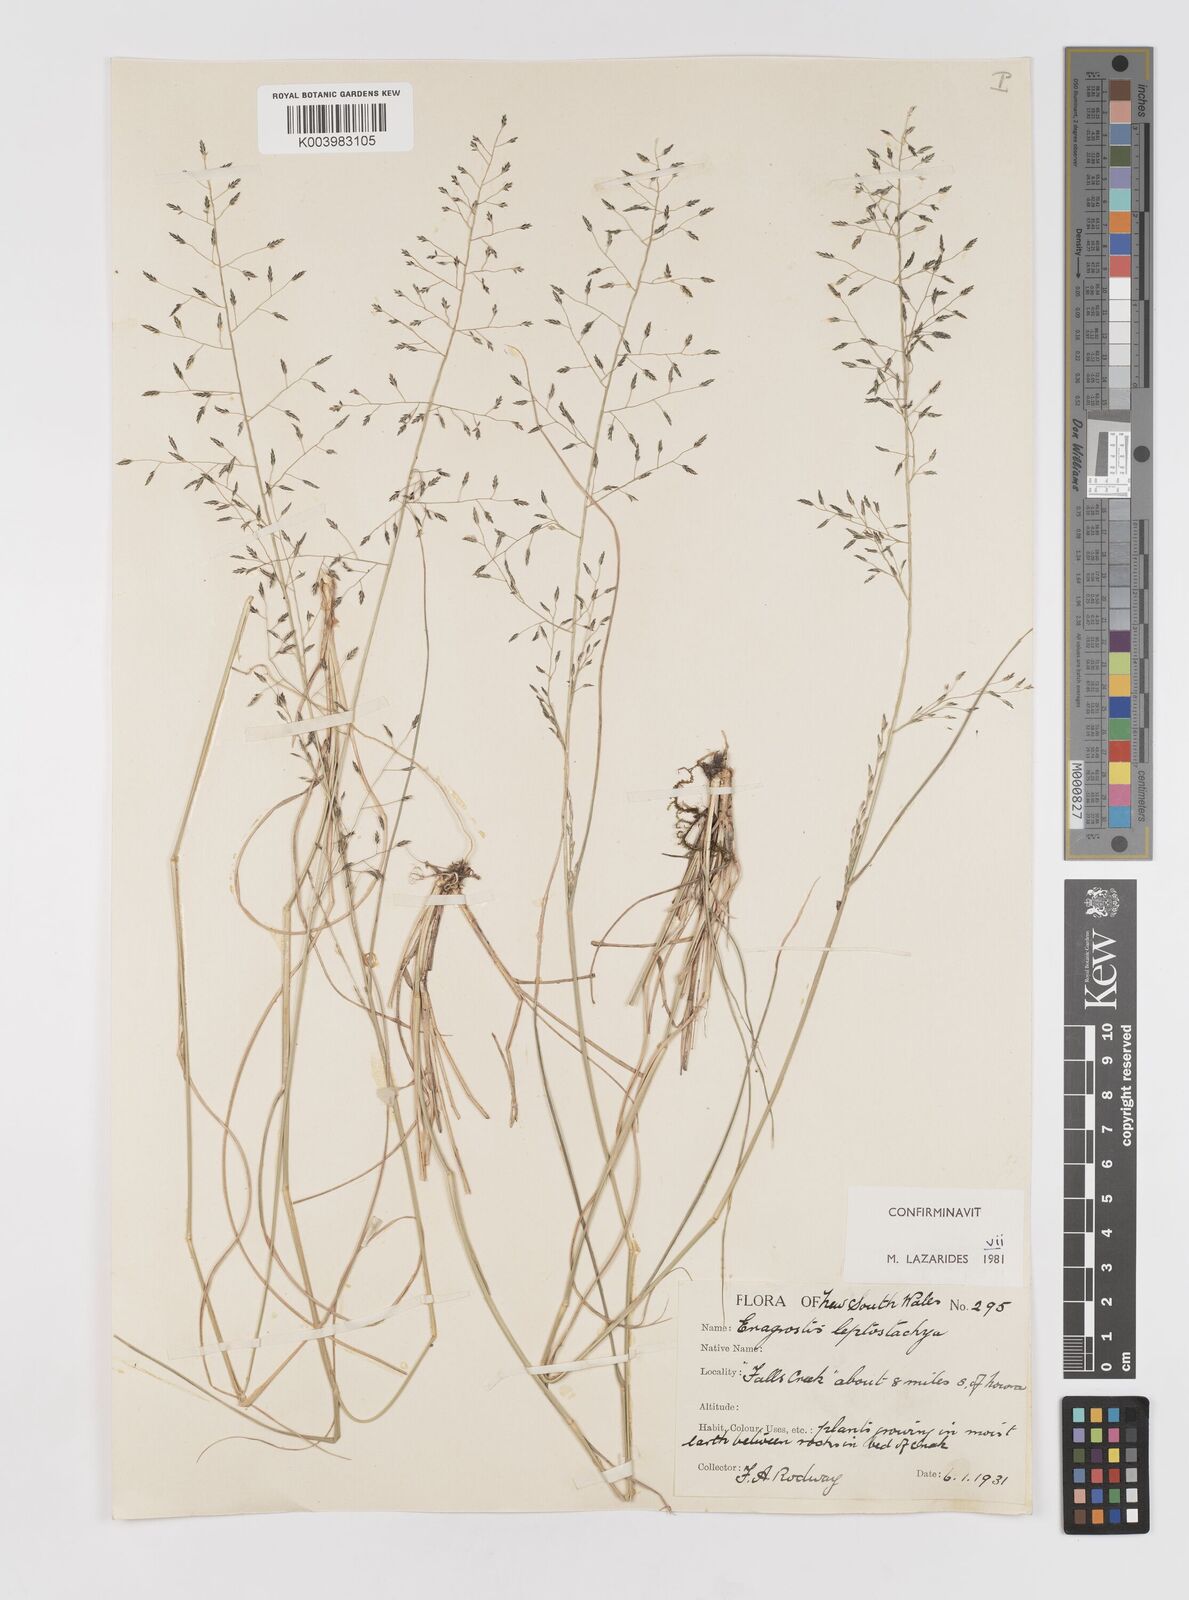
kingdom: Plantae
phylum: Tracheophyta
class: Liliopsida
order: Poales
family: Poaceae
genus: Eragrostis
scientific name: Eragrostis leptostachya
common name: Australian lovegrass
